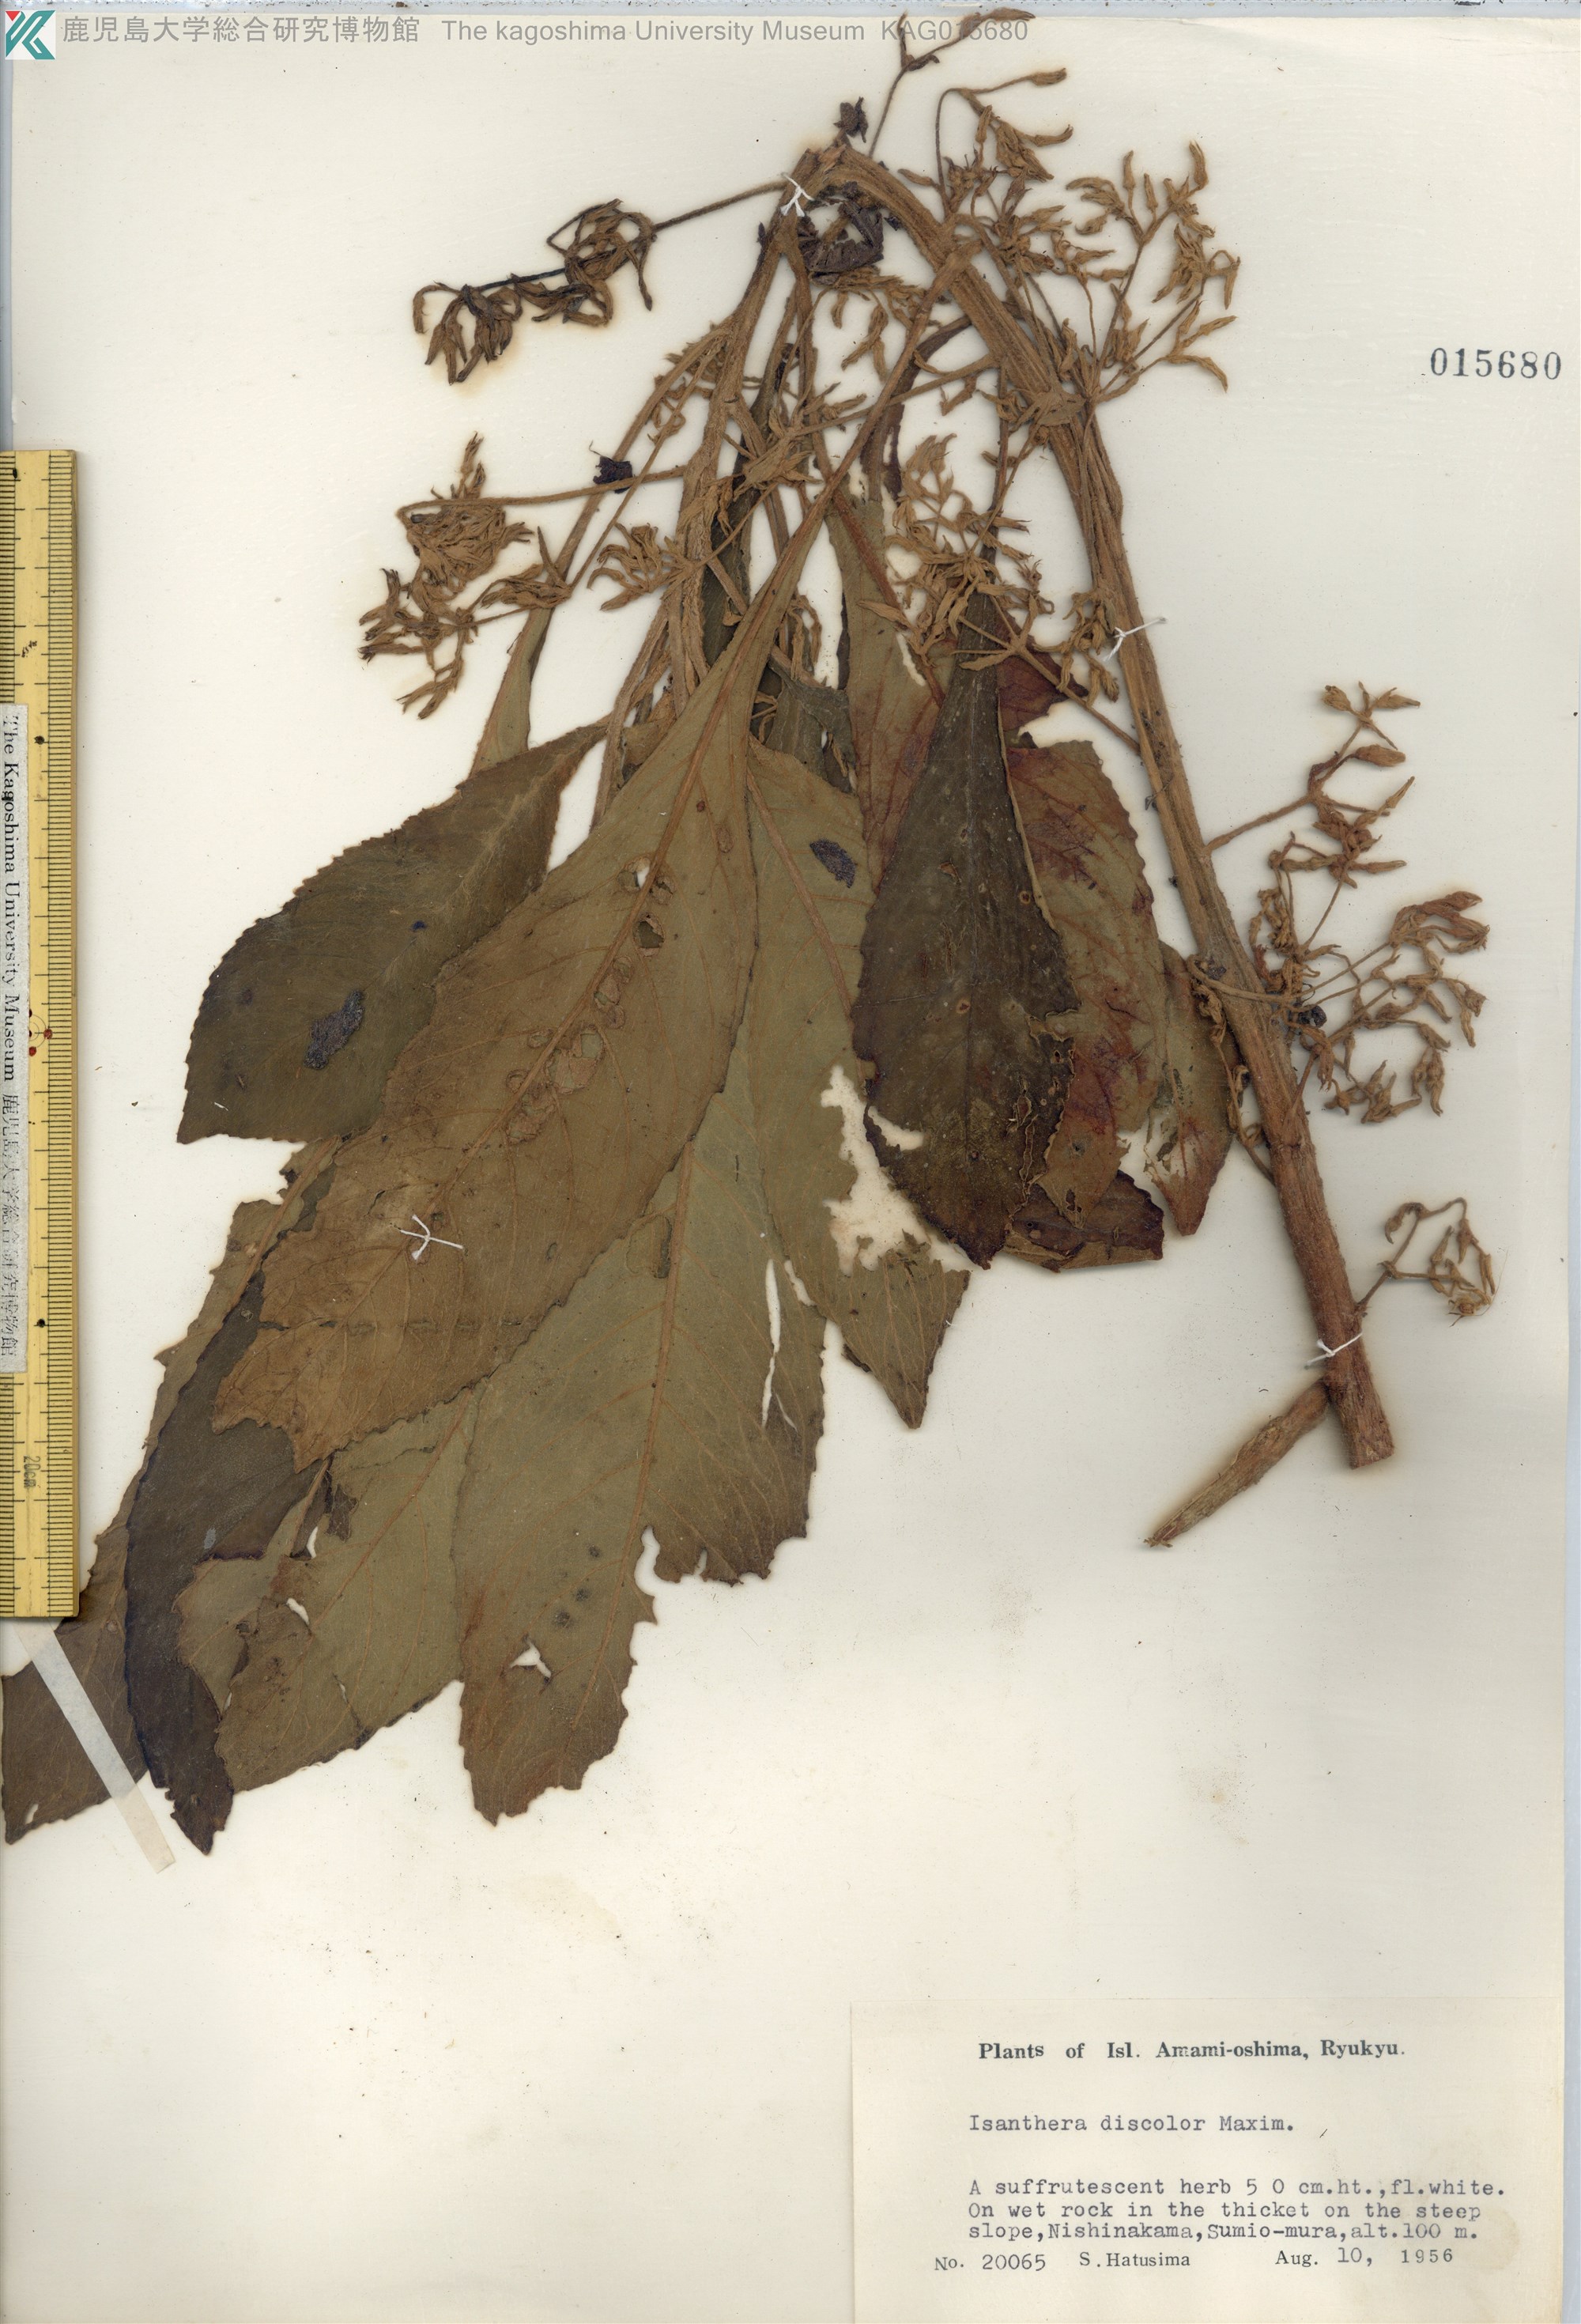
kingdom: Plantae
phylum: Tracheophyta
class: Magnoliopsida
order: Lamiales
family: Gesneriaceae
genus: Rhynchotechum
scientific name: Rhynchotechum discolor
